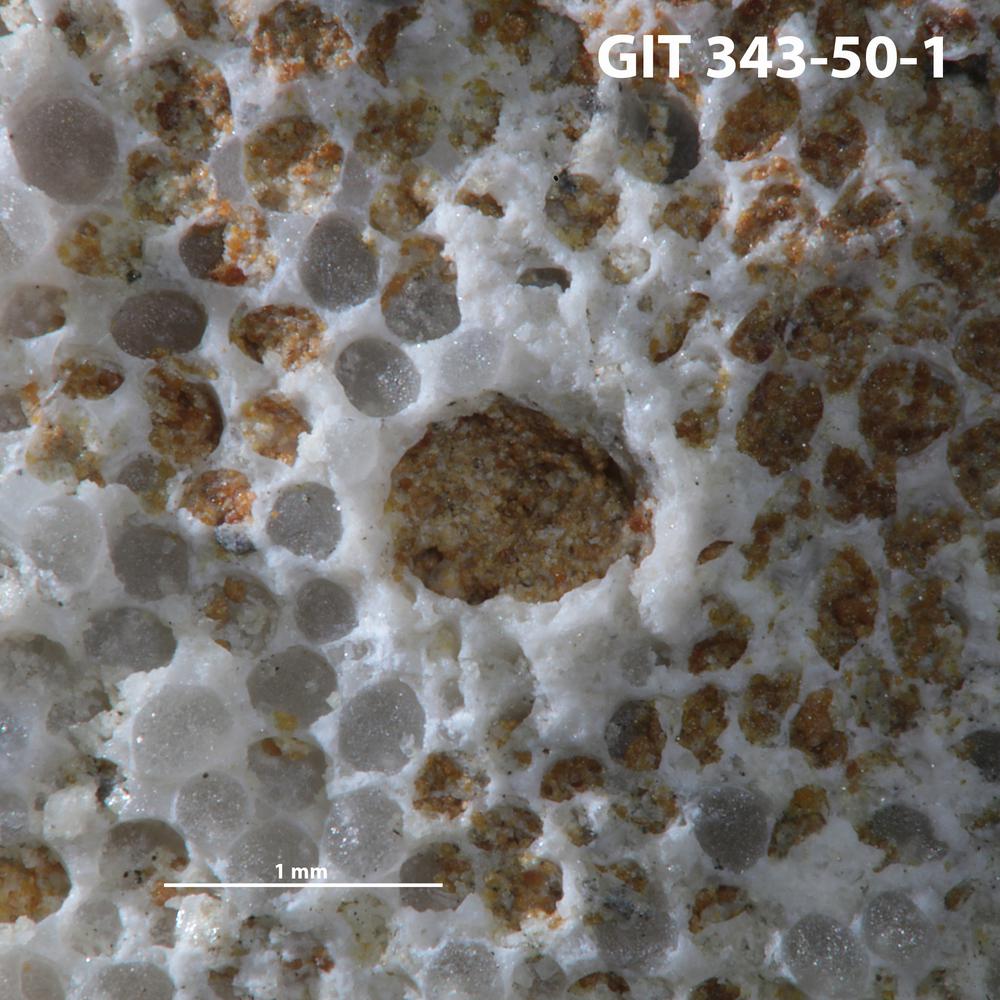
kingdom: Animalia
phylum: Annelida
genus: Anoigmaichnus
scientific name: Anoigmaichnus
